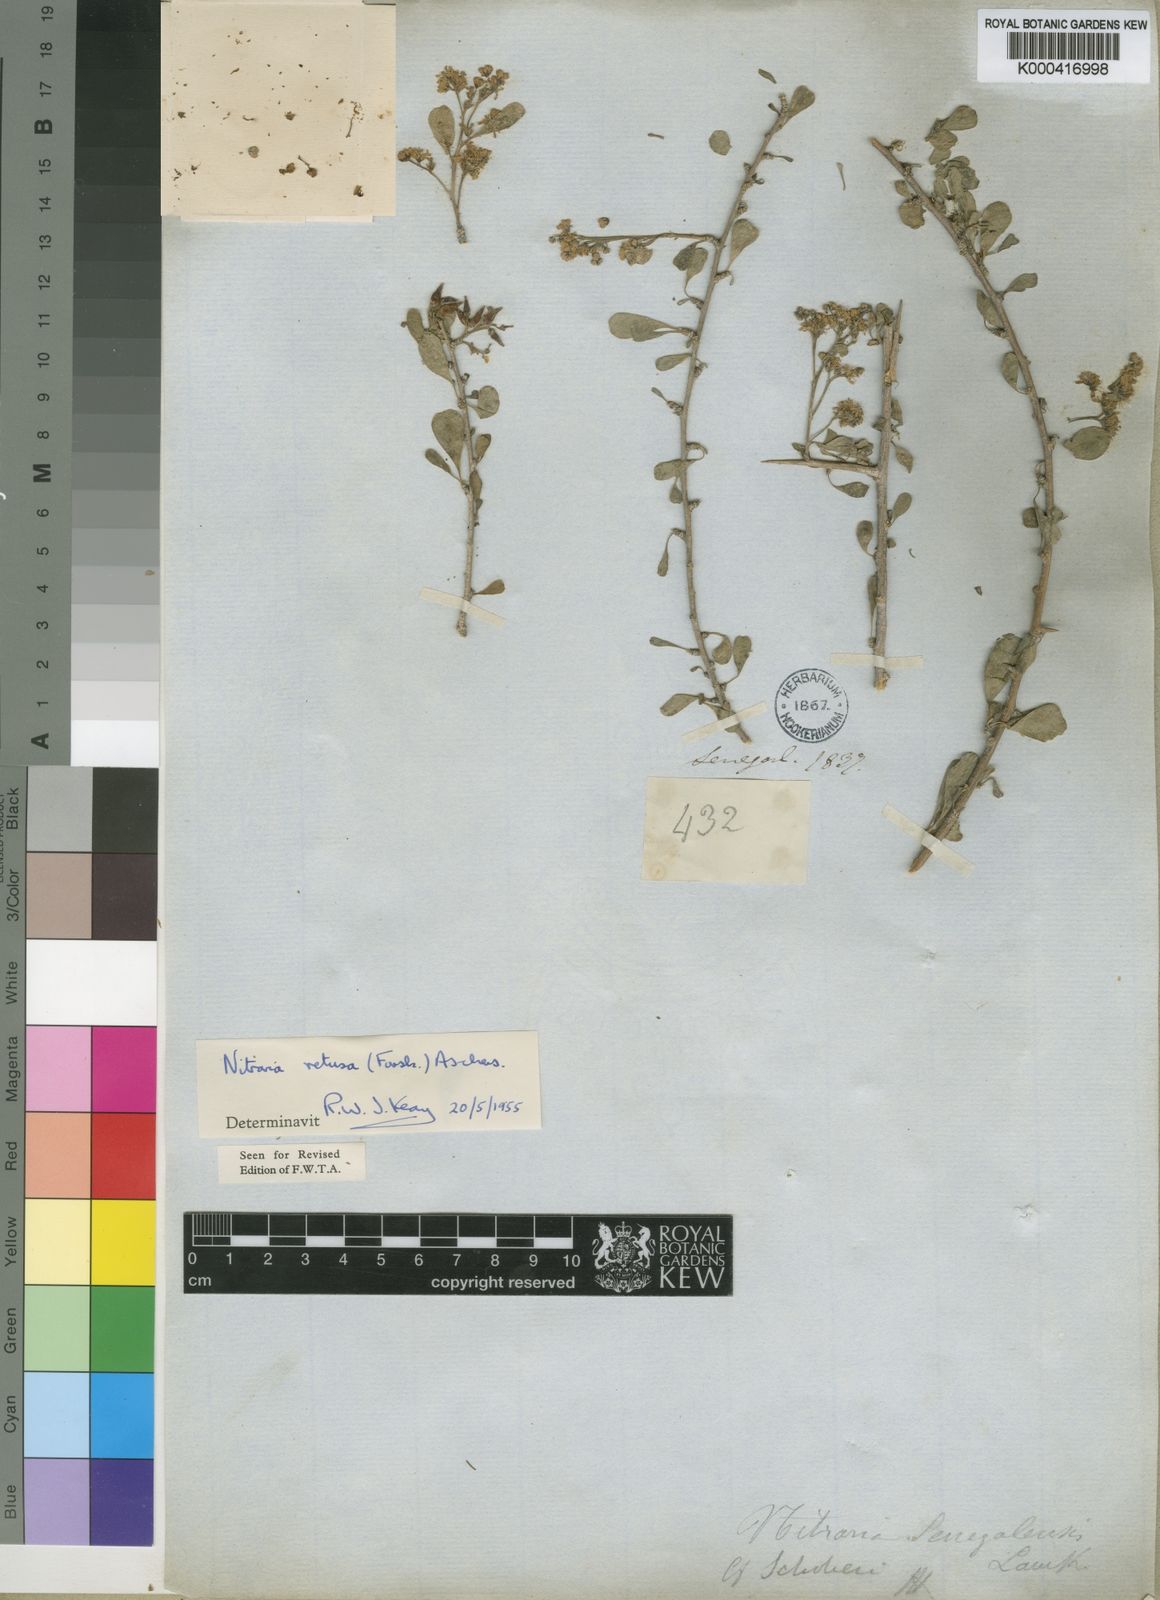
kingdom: Plantae
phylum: Tracheophyta
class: Magnoliopsida
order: Sapindales
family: Nitrariaceae
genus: Nitraria
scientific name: Nitraria
